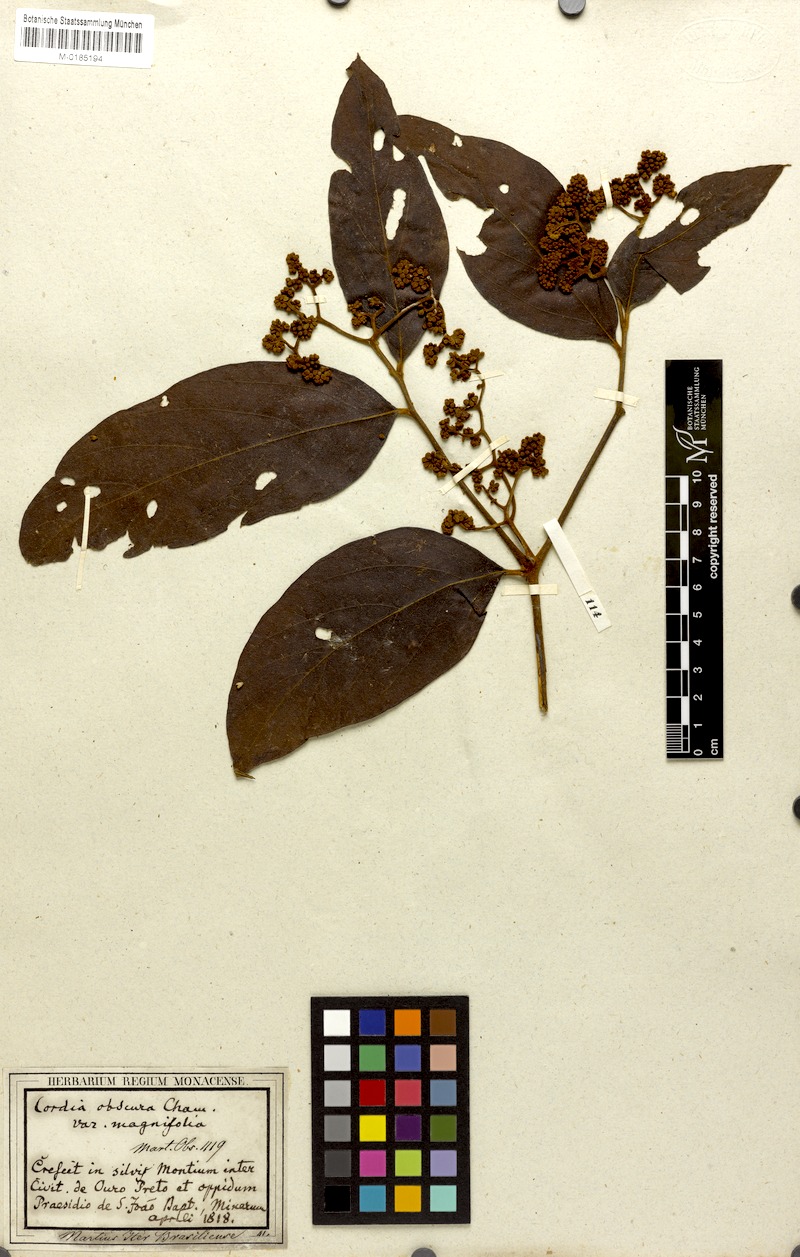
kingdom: Plantae
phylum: Tracheophyta
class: Magnoliopsida
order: Boraginales
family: Cordiaceae
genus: Cordia
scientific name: Cordia sellowiana
